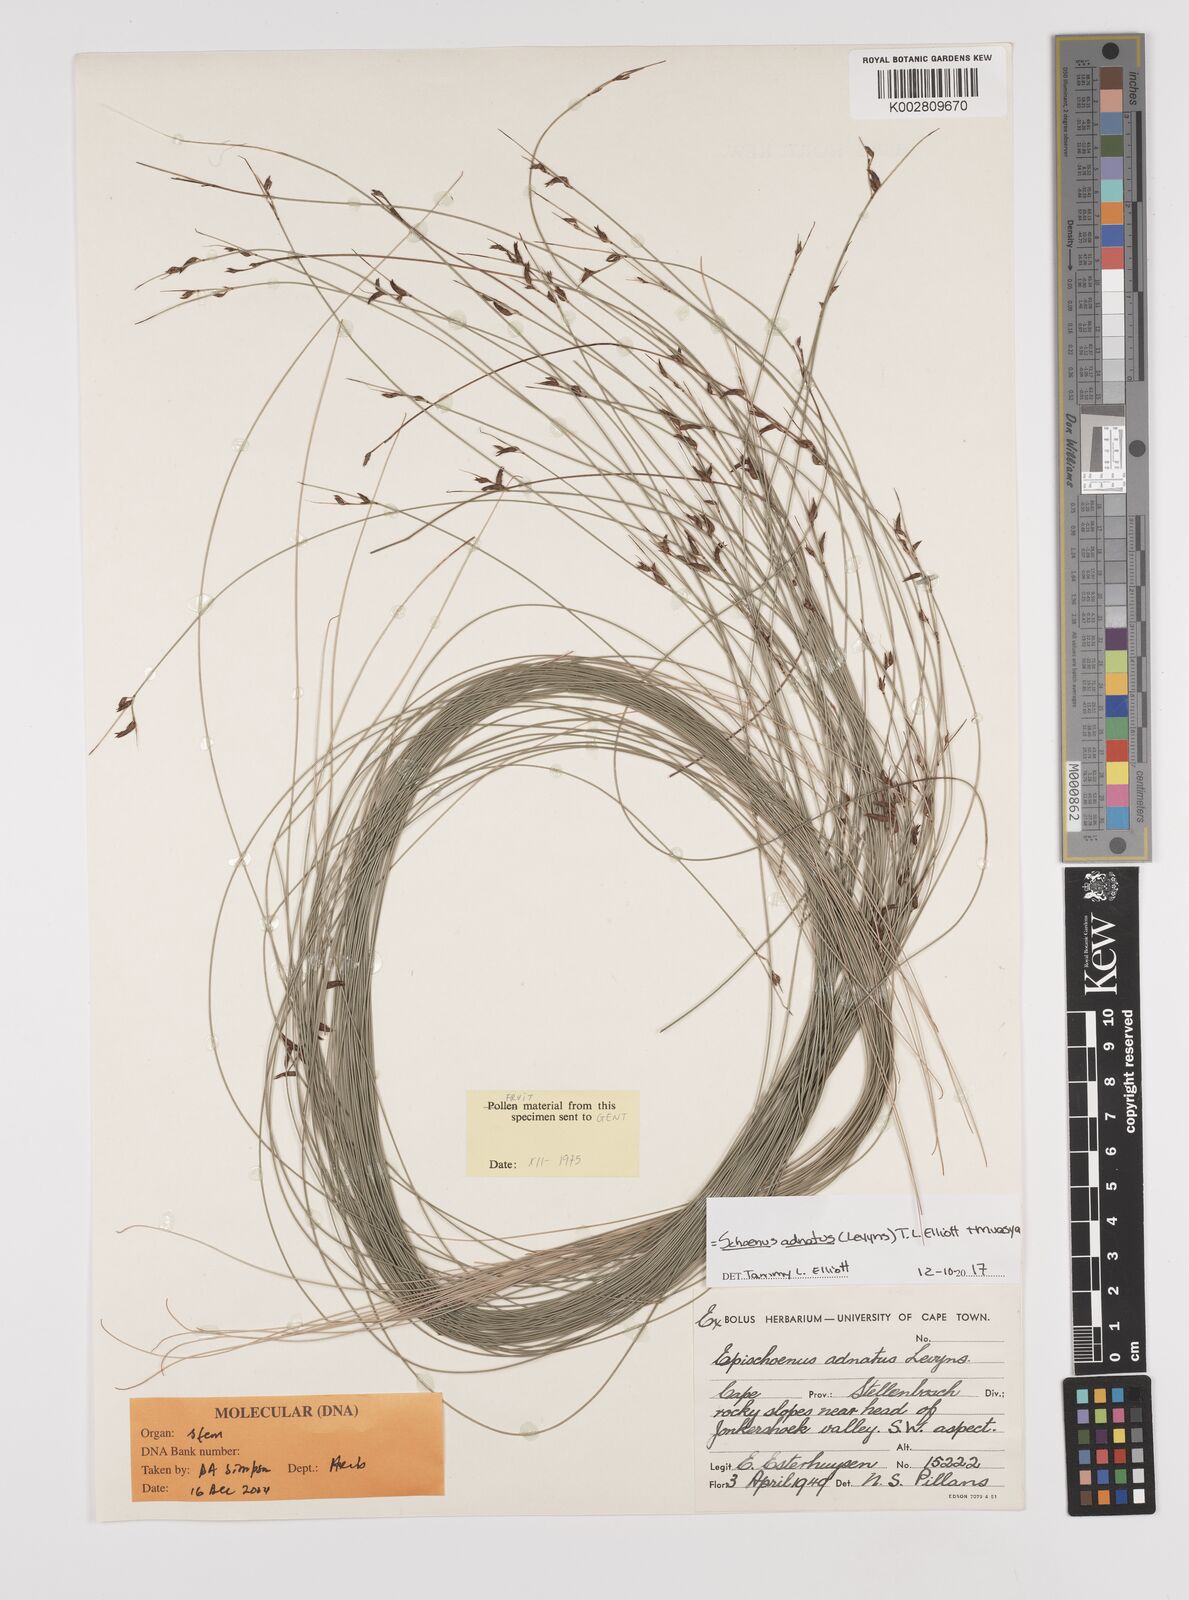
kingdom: Plantae
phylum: Tracheophyta
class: Liliopsida
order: Poales
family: Cyperaceae
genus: Schoenus
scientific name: Schoenus adnatus
